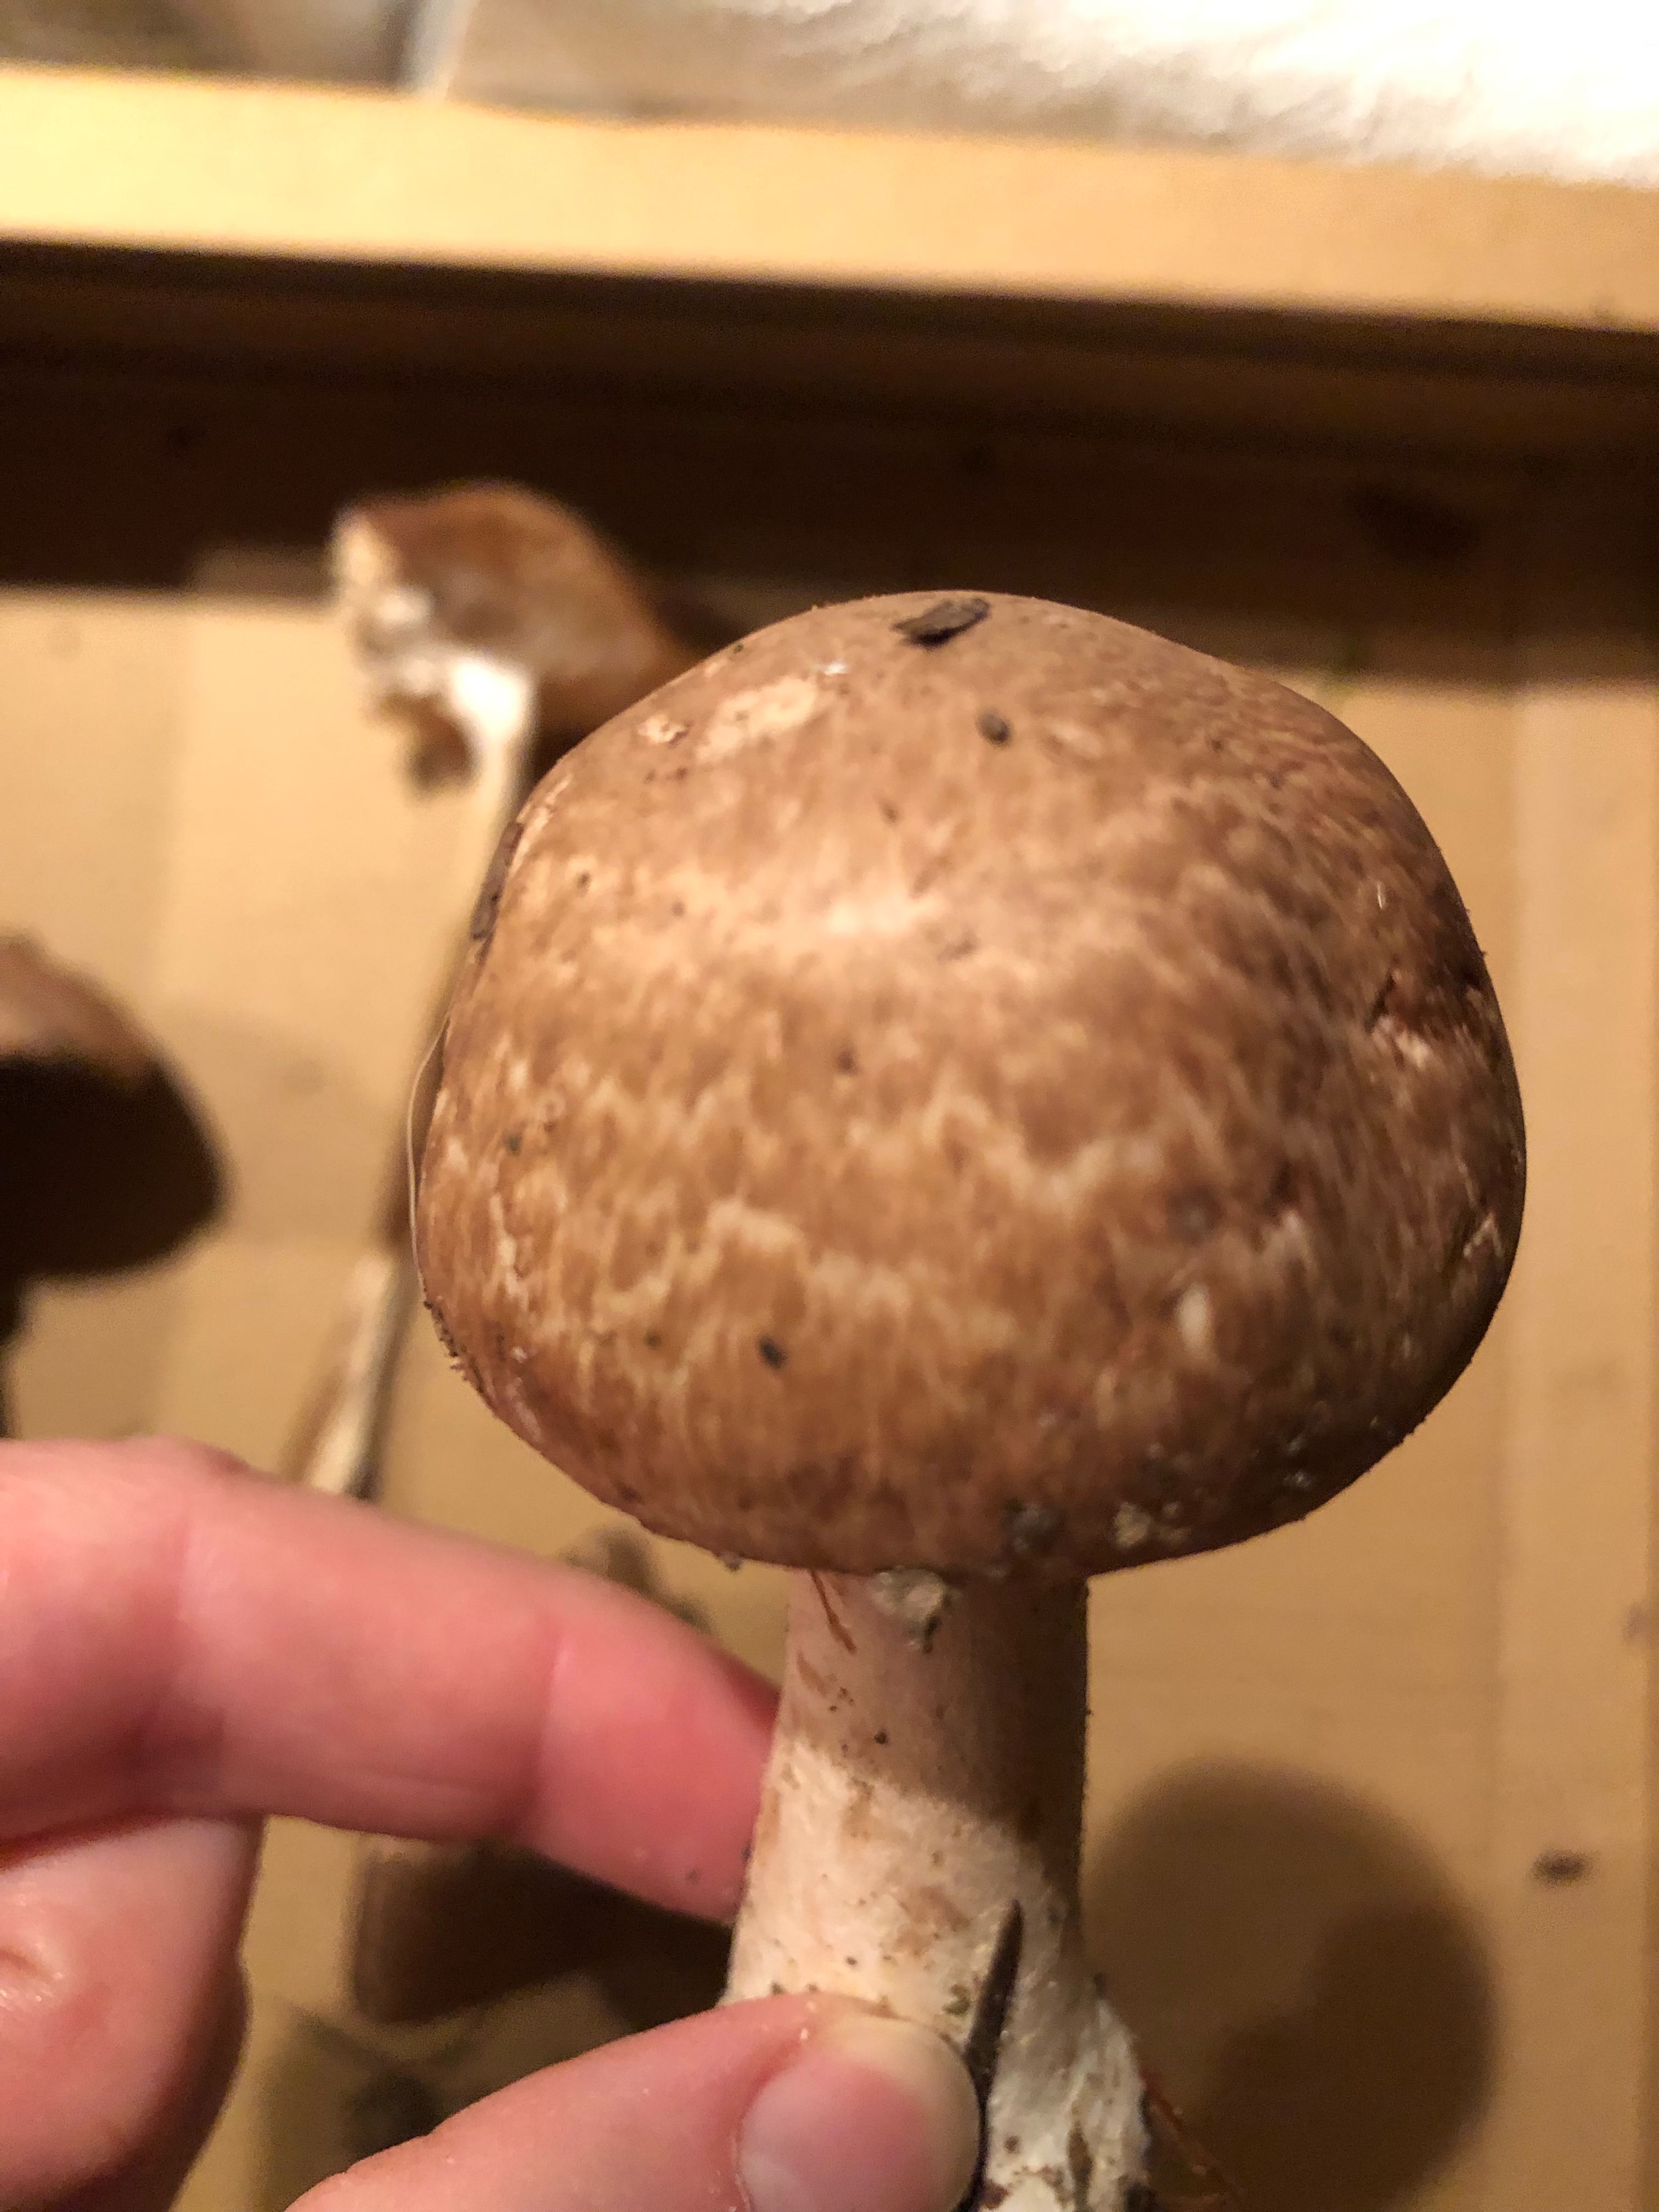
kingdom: Fungi
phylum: Basidiomycota
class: Agaricomycetes
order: Agaricales
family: Agaricaceae
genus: Agaricus
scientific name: Agaricus
